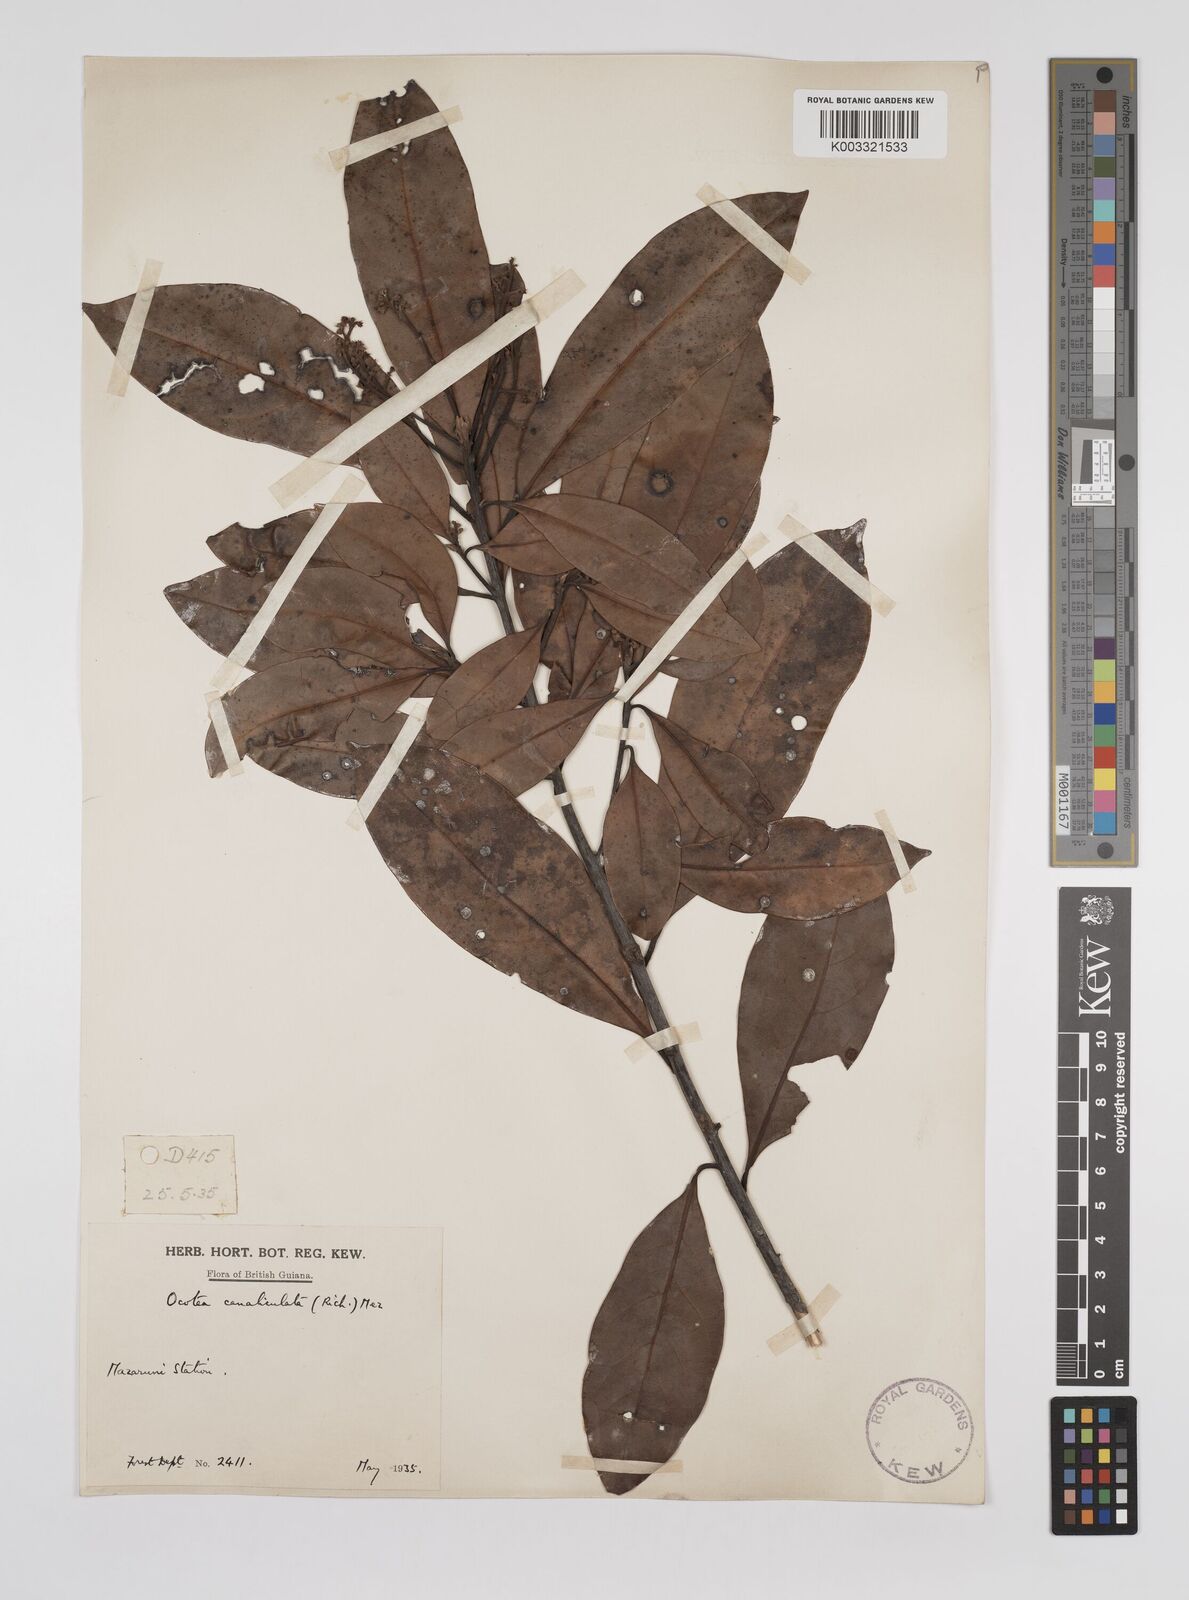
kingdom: Plantae
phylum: Tracheophyta
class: Magnoliopsida
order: Laurales
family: Lauraceae
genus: Ocotea
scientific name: Ocotea canaliculata
